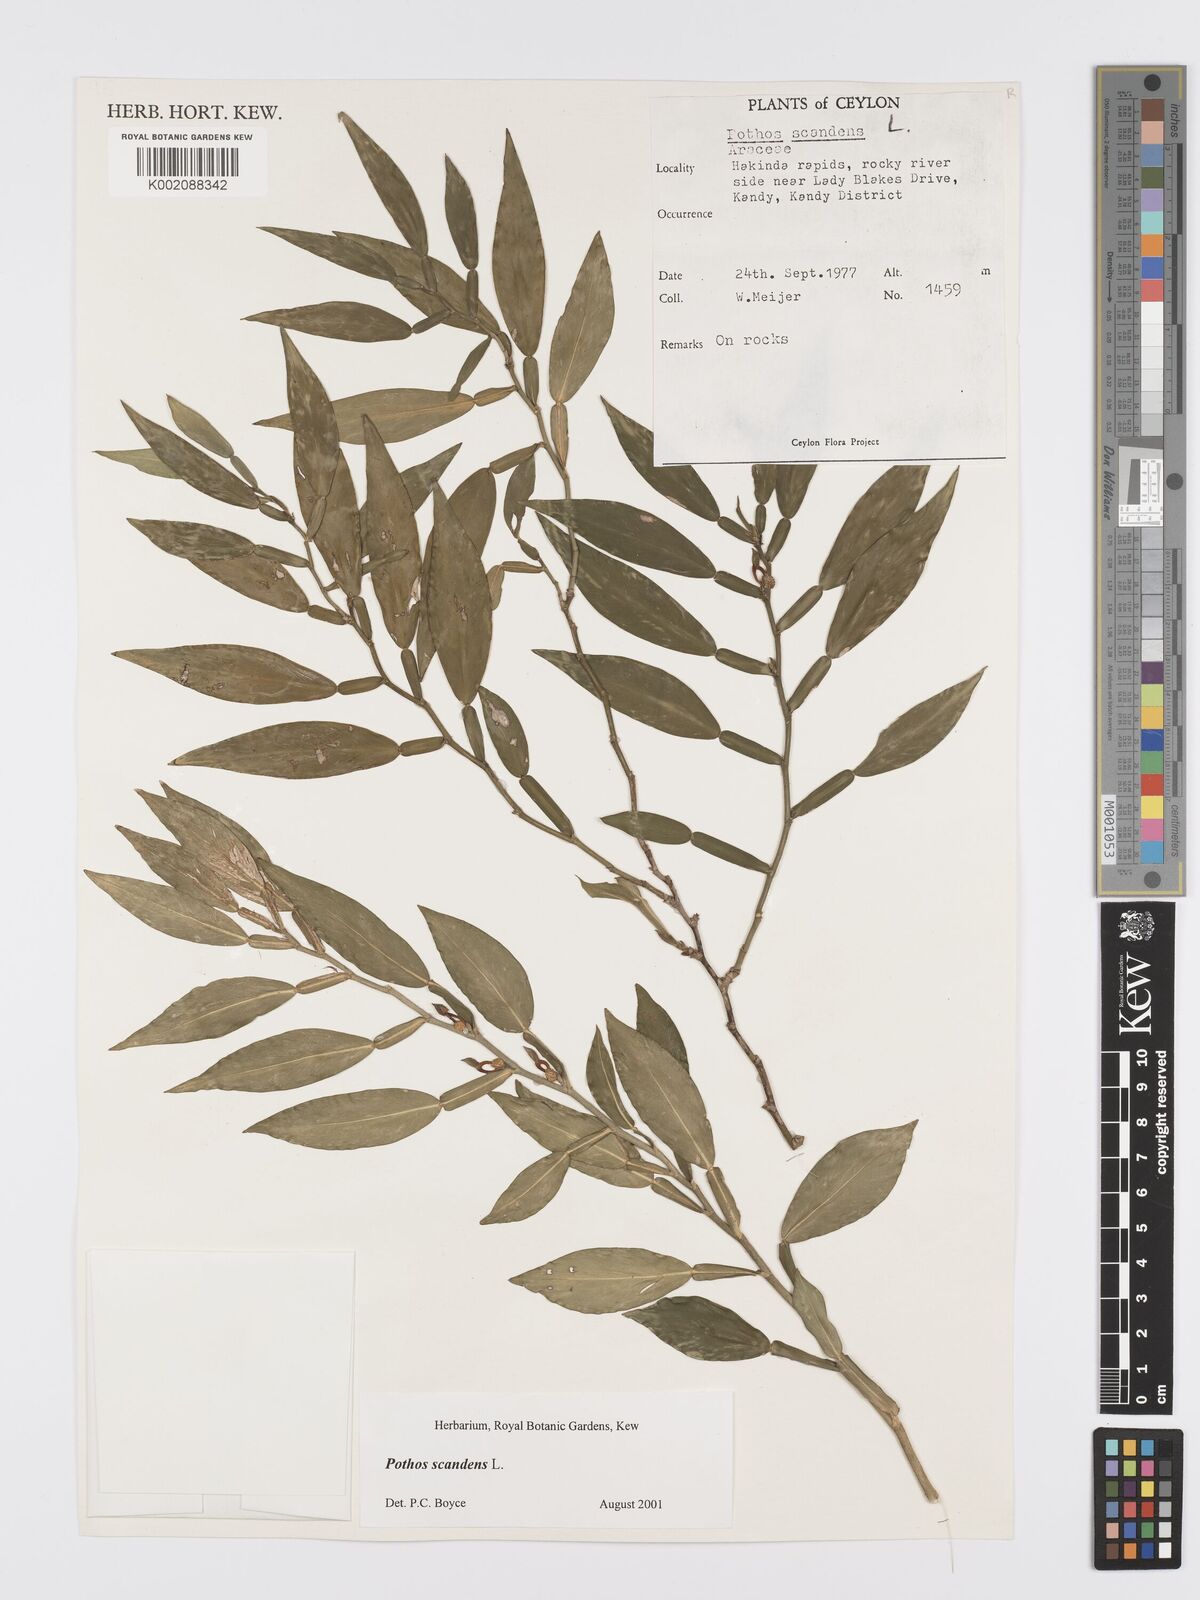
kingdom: Plantae
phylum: Tracheophyta
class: Liliopsida
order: Alismatales
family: Araceae
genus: Pothos
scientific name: Pothos scandens
